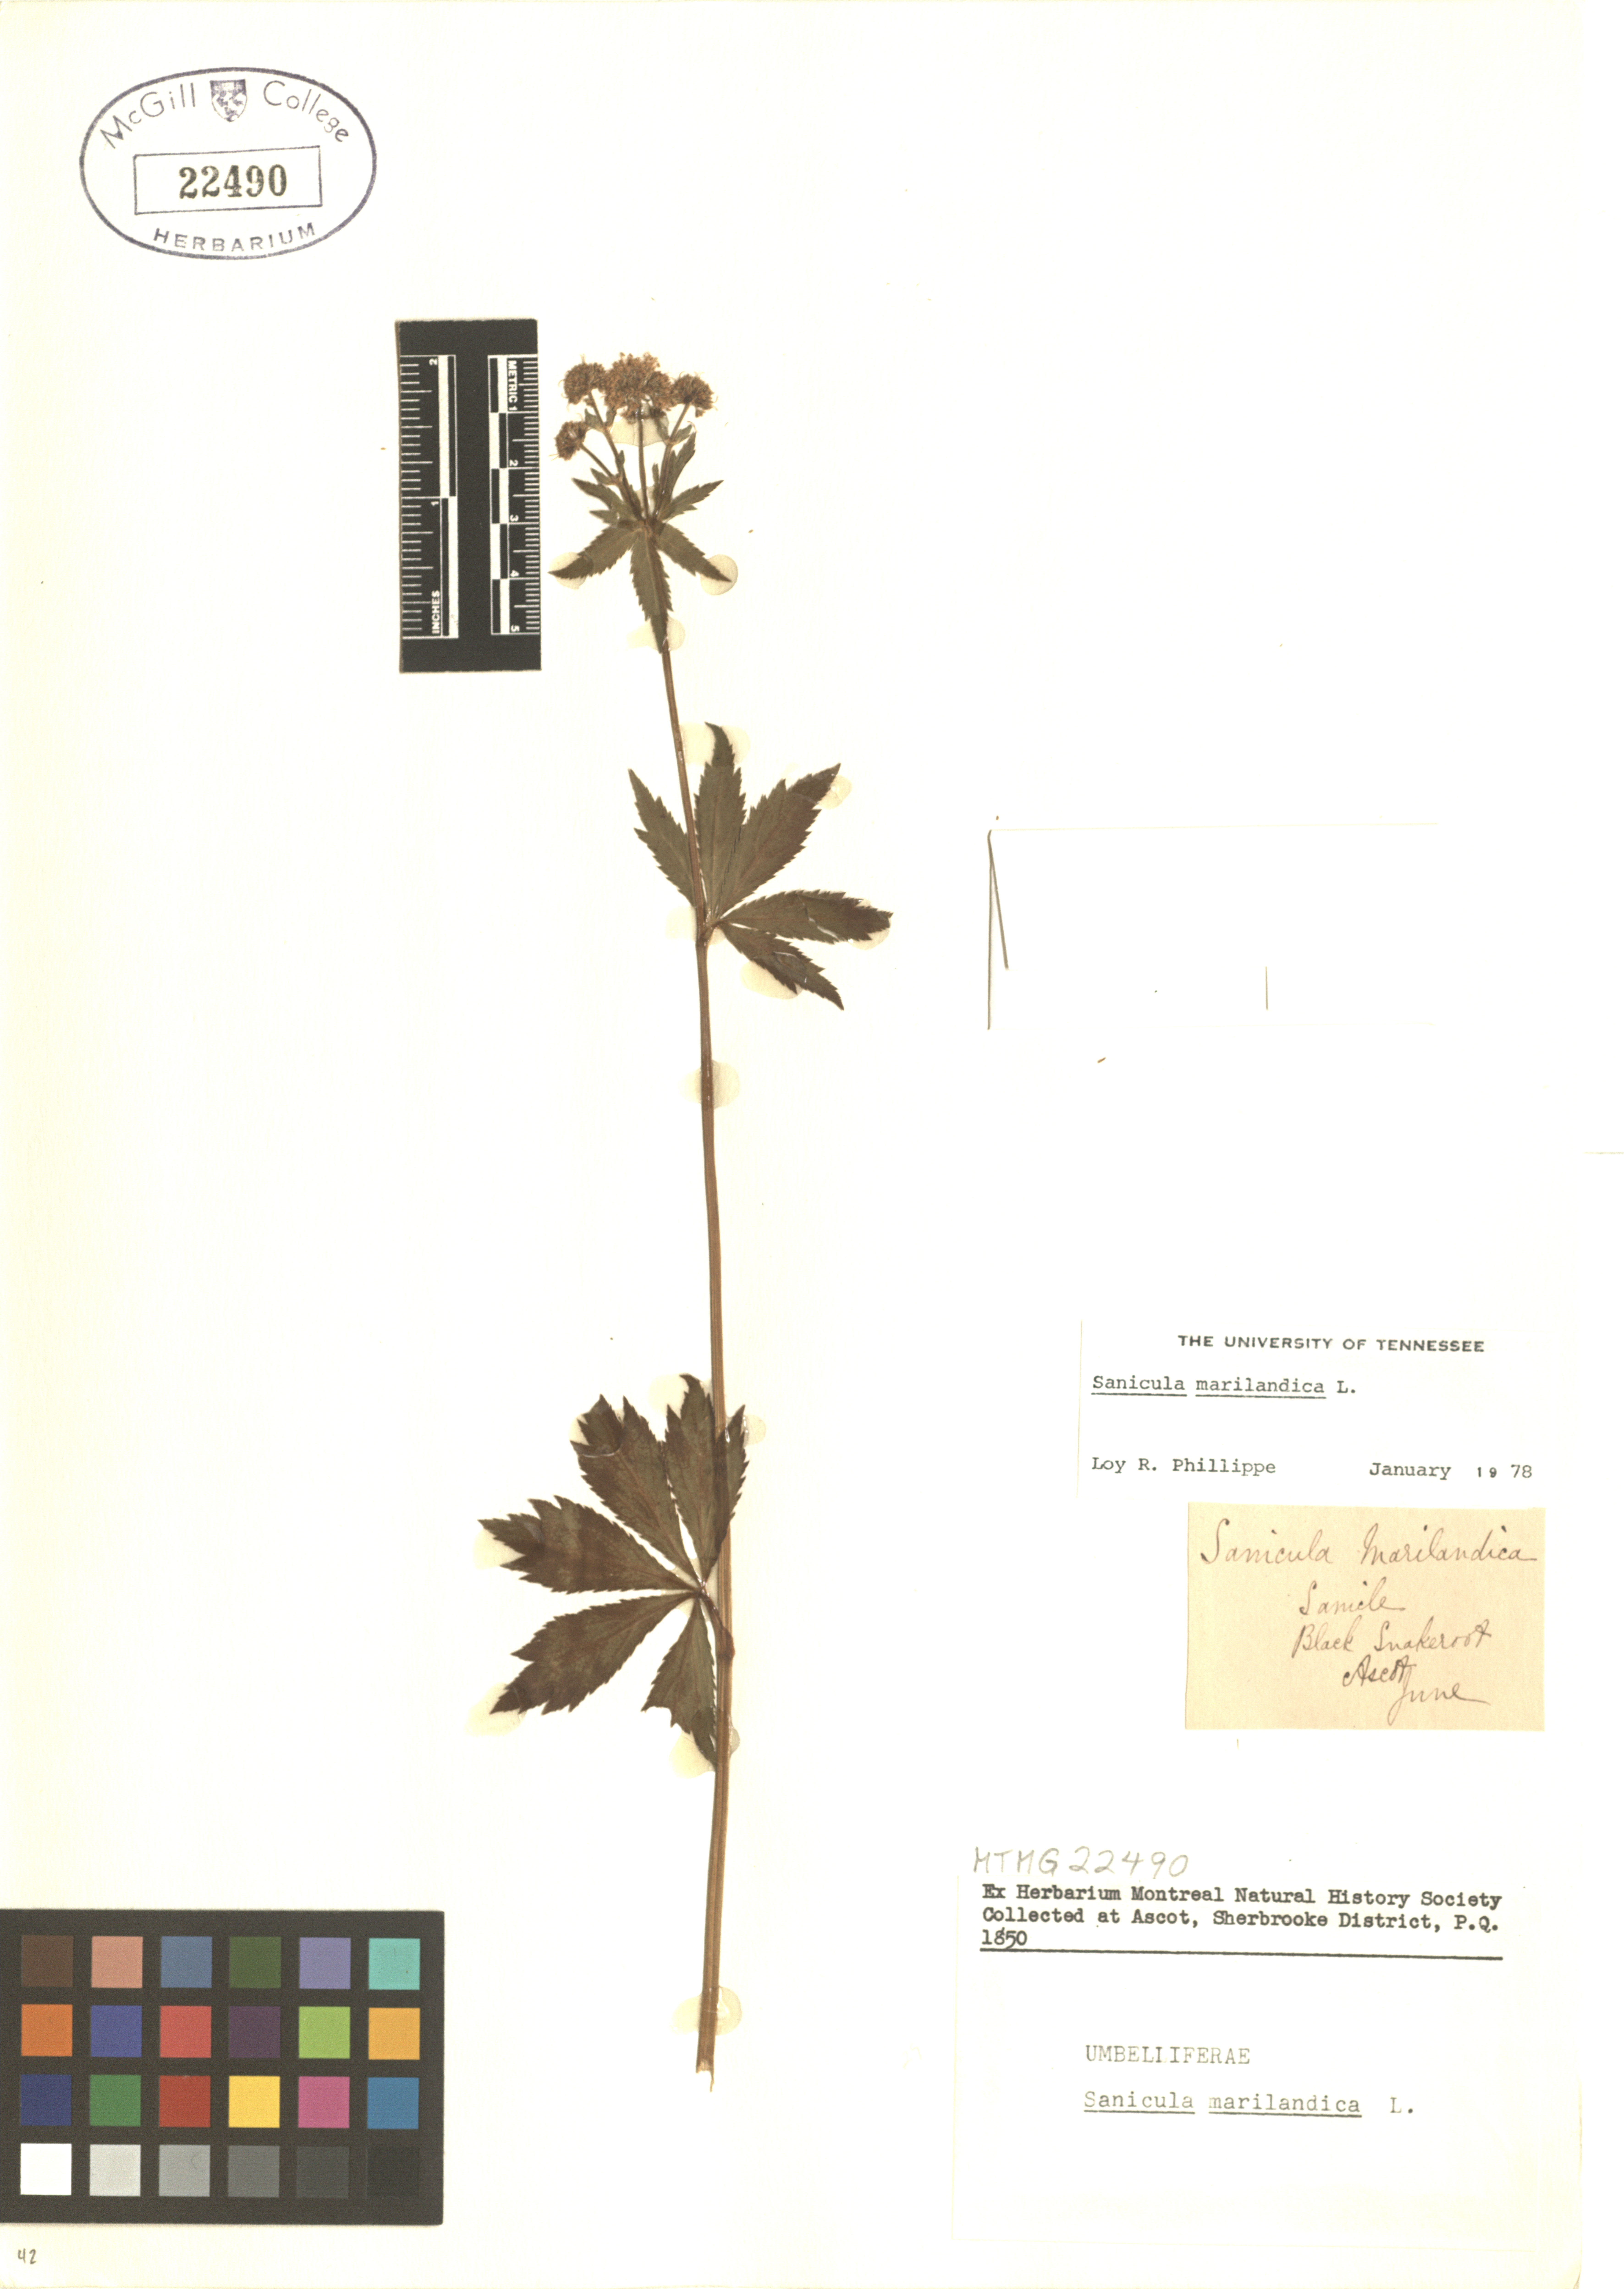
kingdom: Plantae
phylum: Tracheophyta
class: Magnoliopsida
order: Apiales
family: Apiaceae
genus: Sanicula
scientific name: Sanicula marilandica
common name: Black snakeroot
